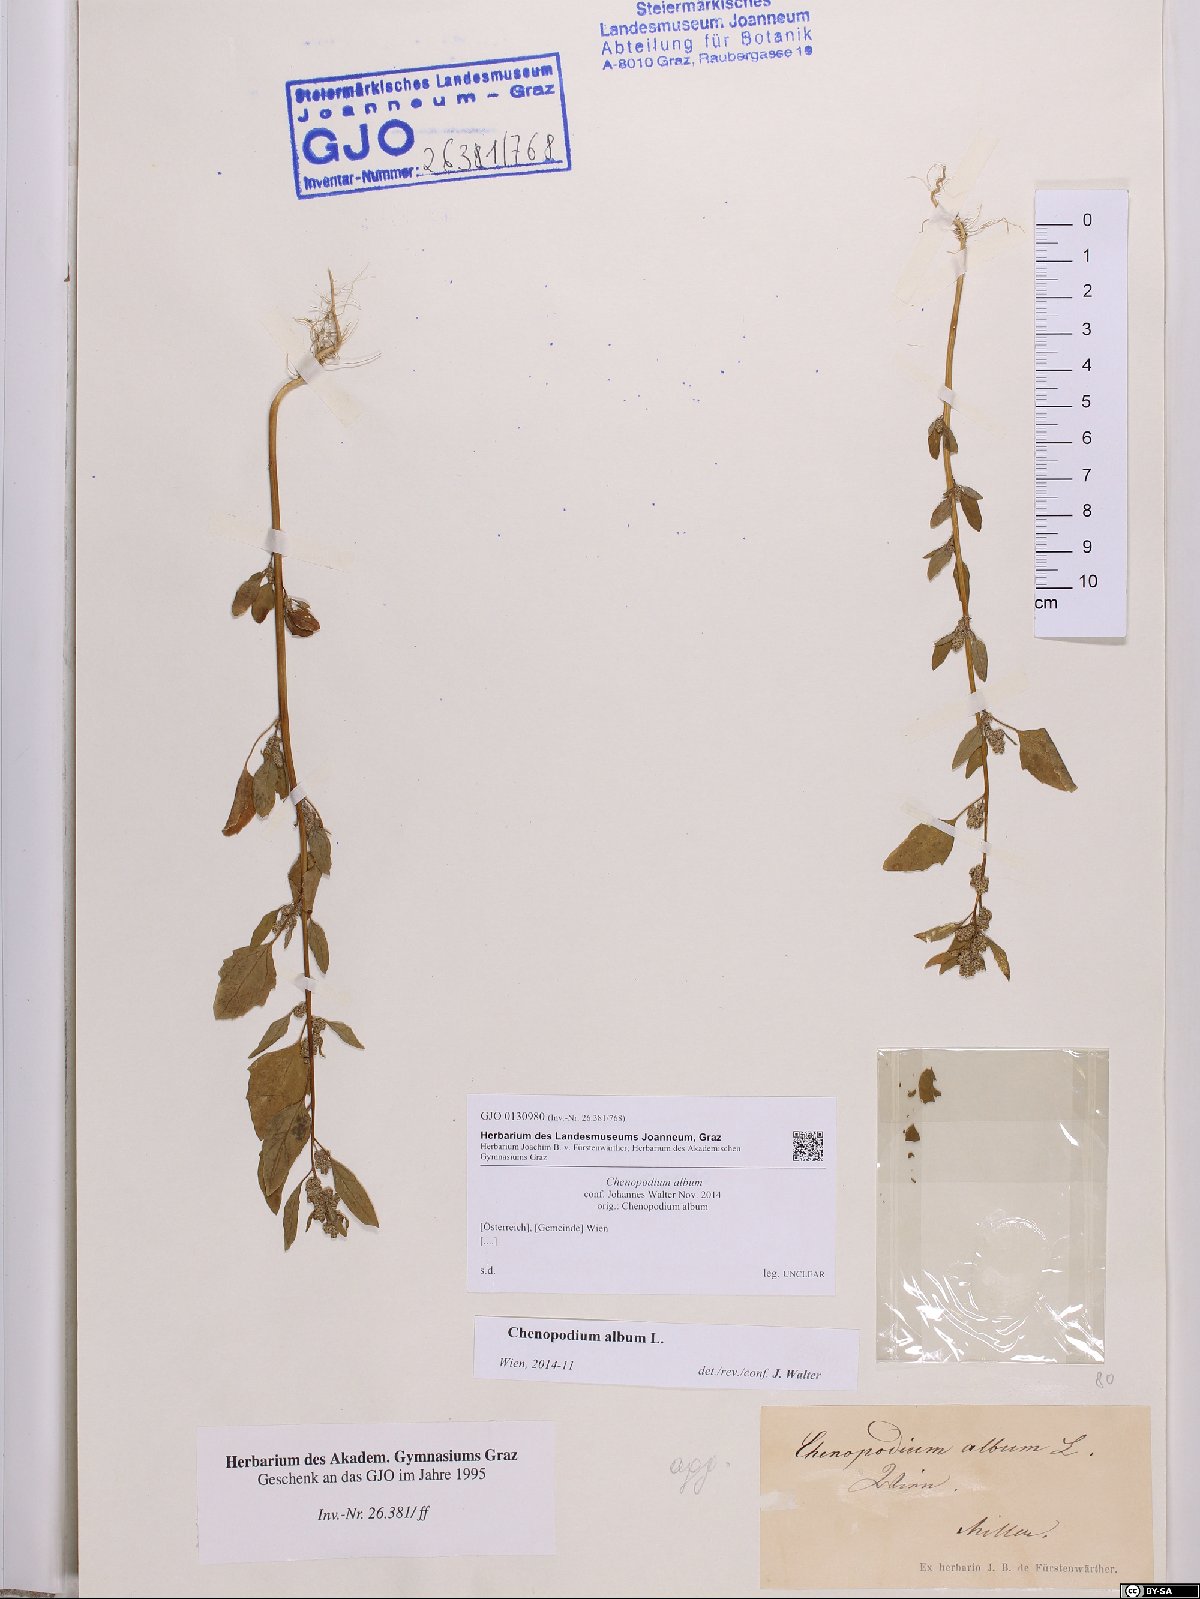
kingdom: Plantae
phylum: Tracheophyta
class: Magnoliopsida
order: Caryophyllales
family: Amaranthaceae
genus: Chenopodium
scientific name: Chenopodium album
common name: Fat-hen
